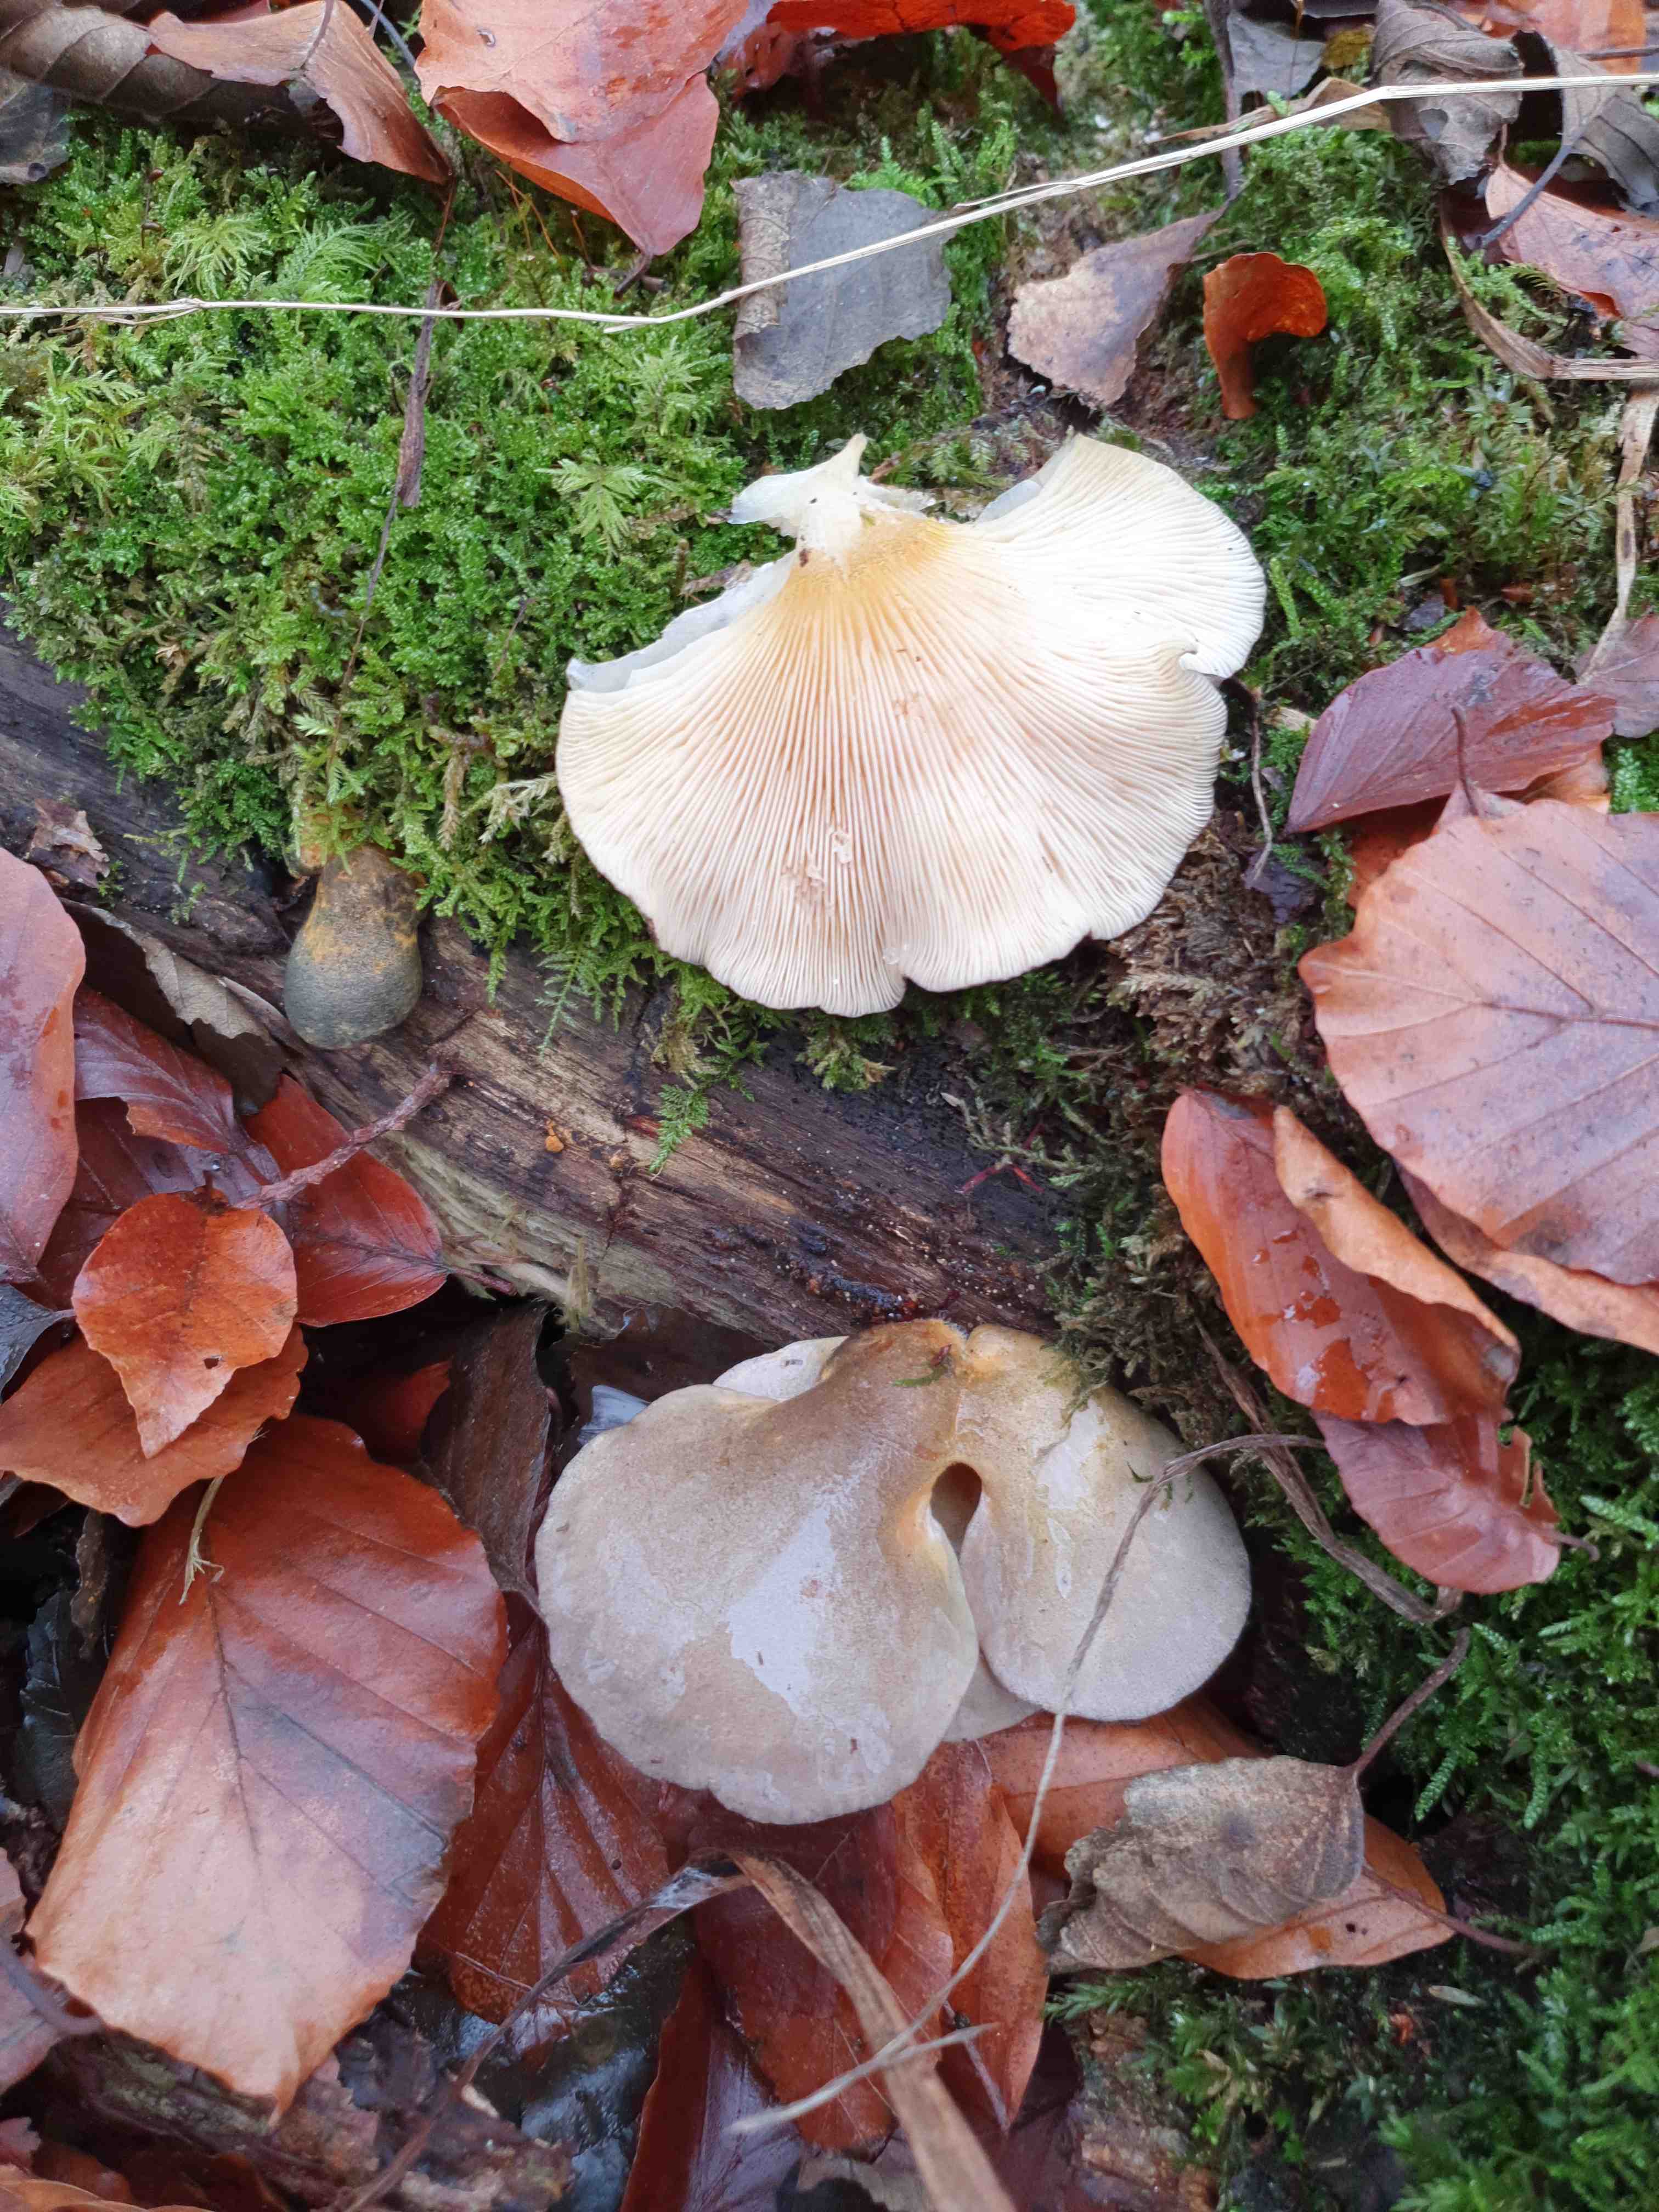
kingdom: Fungi
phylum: Basidiomycota
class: Agaricomycetes
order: Agaricales
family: Sarcomyxaceae
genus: Sarcomyxa
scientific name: Sarcomyxa serotina
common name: gummihat
